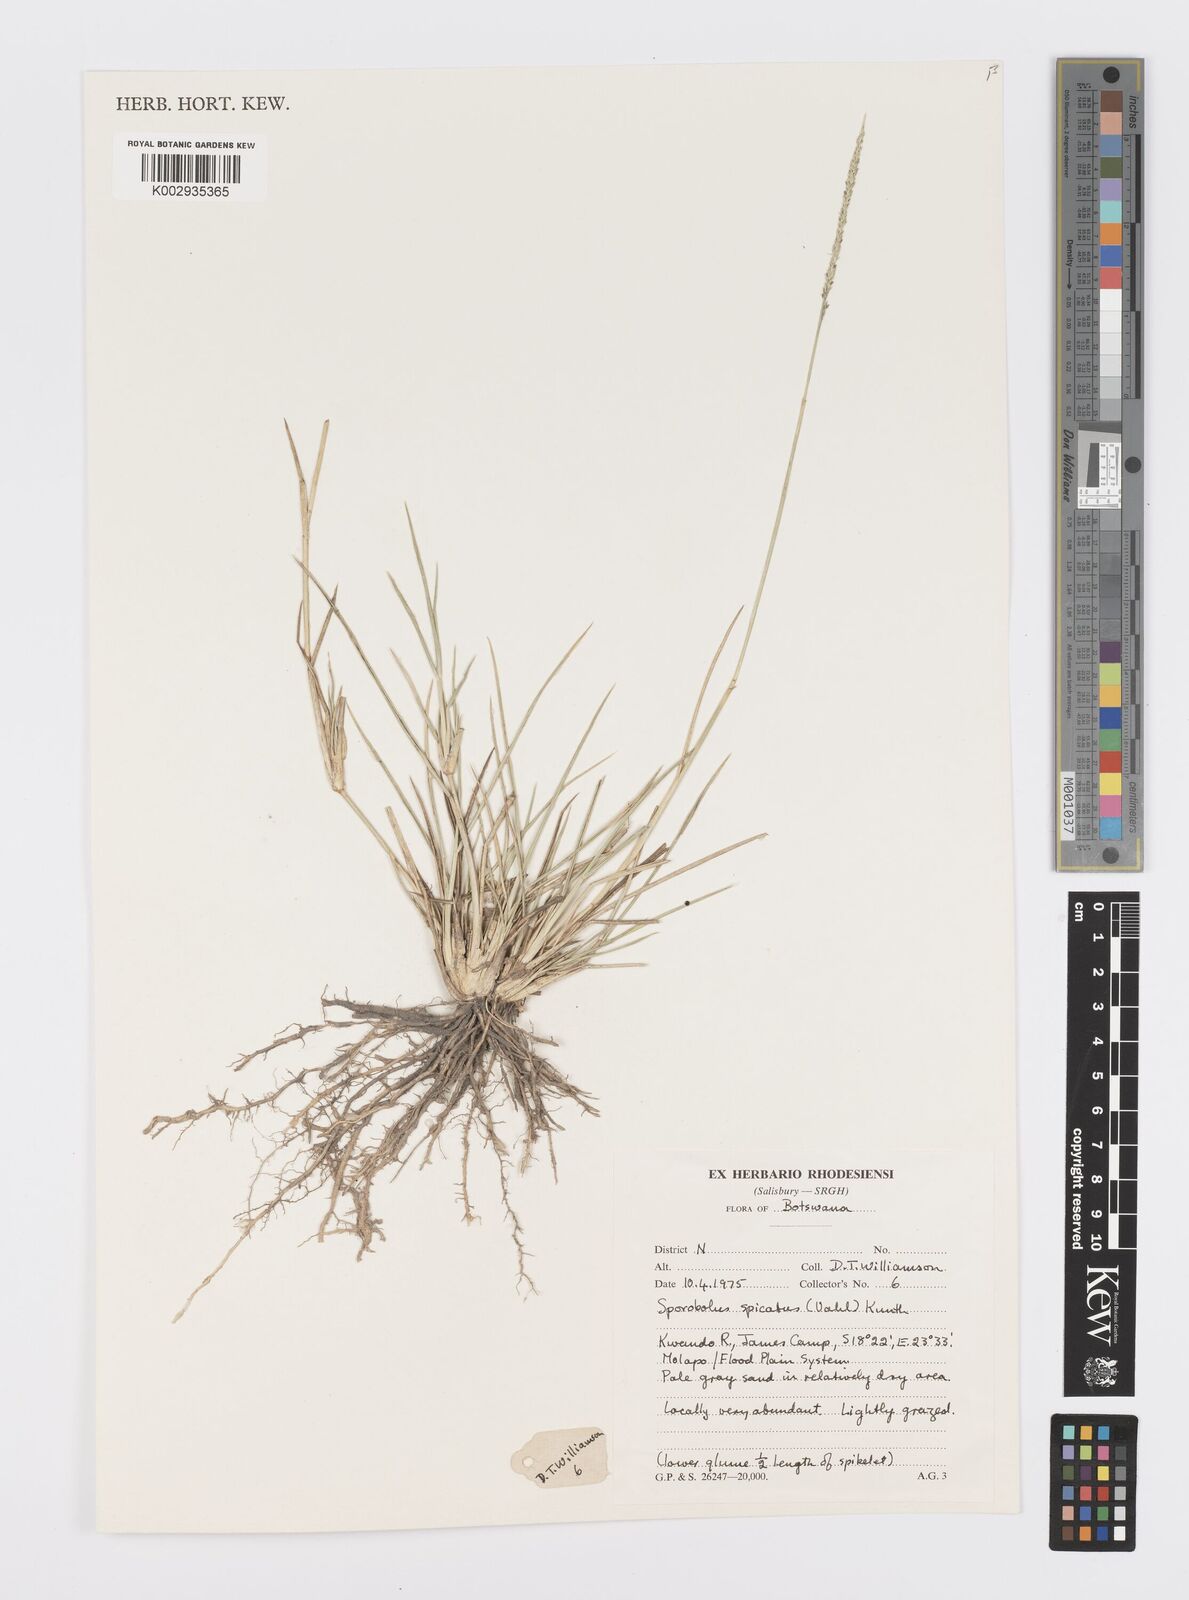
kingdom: Plantae
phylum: Tracheophyta
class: Liliopsida
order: Poales
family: Poaceae
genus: Sporobolus
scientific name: Sporobolus spicatus
